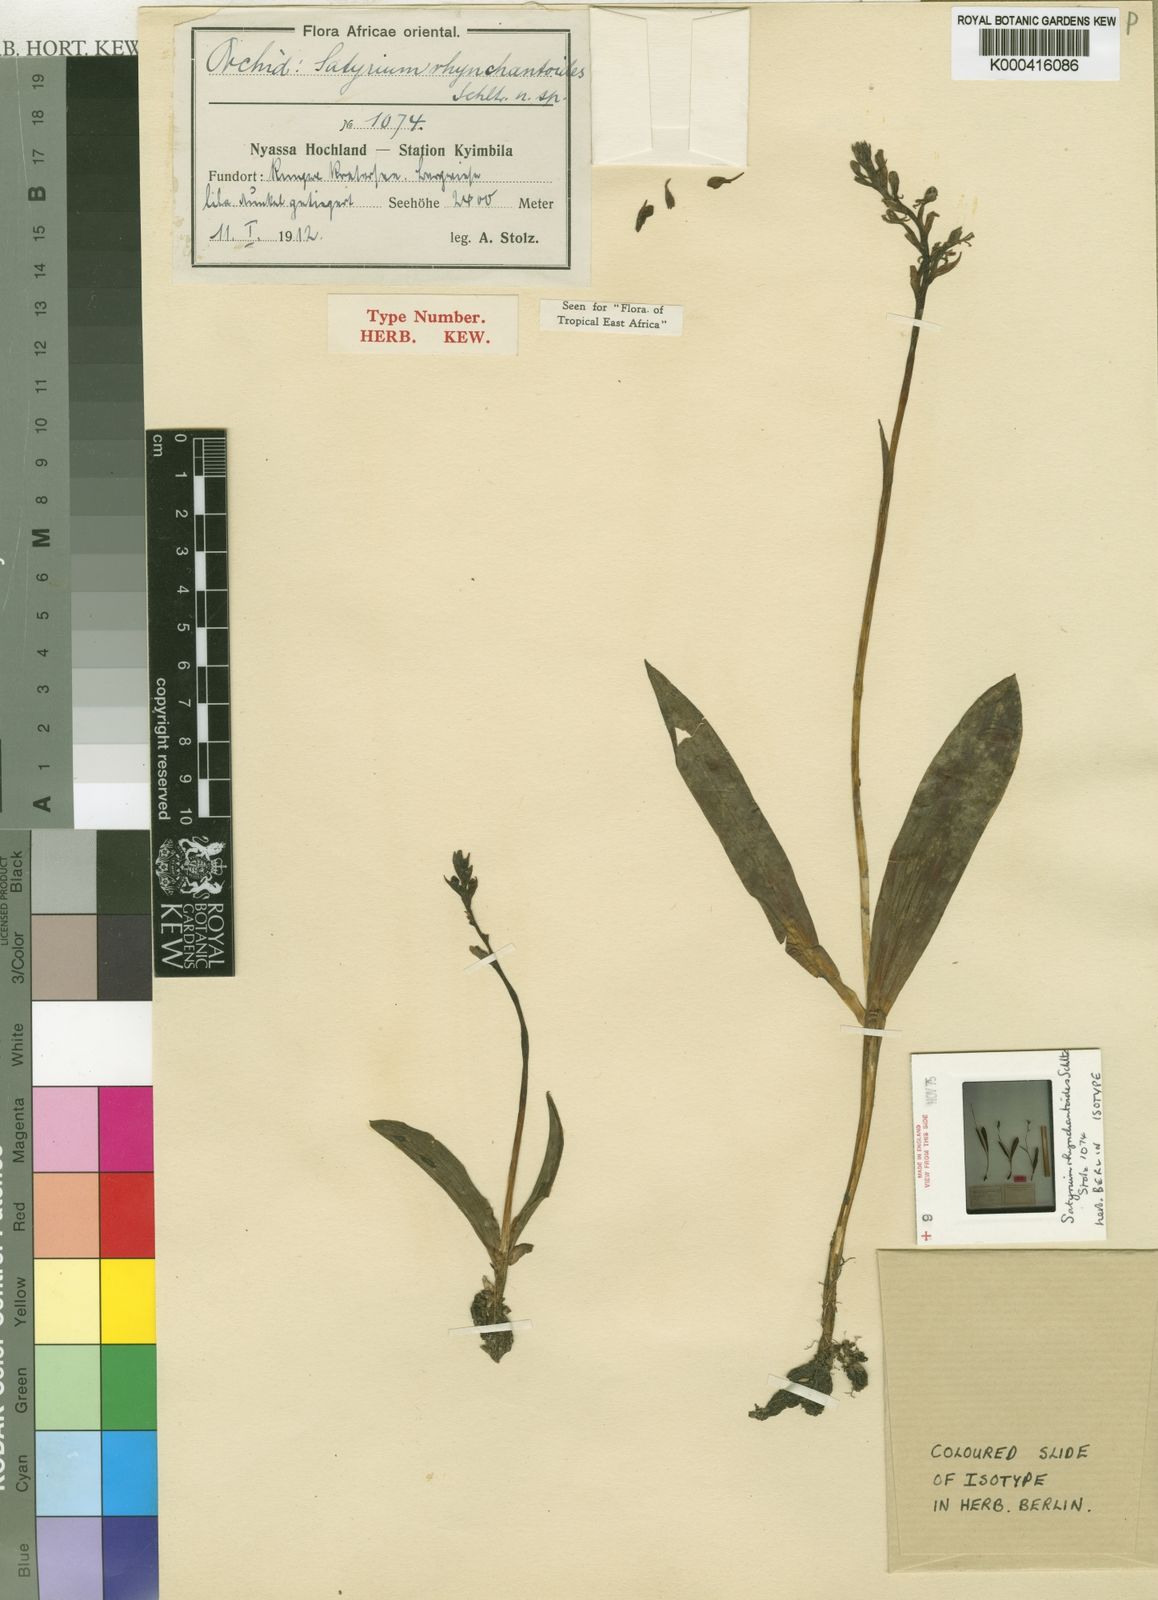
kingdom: Plantae
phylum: Tracheophyta
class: Liliopsida
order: Asparagales
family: Orchidaceae
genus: Satyrium
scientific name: Satyrium rhynchanthoides
